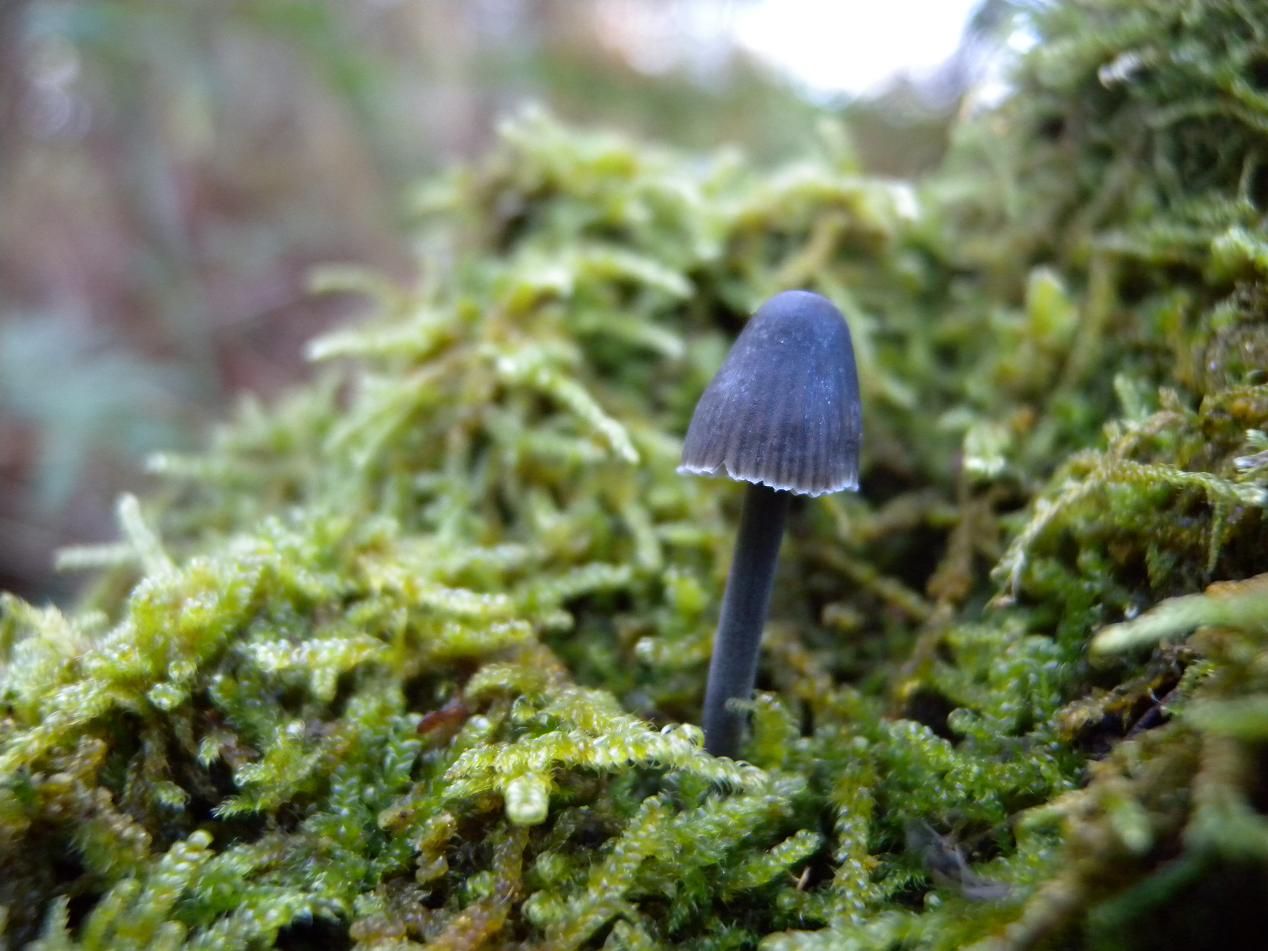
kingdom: Fungi
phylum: Basidiomycota
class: Agaricomycetes
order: Agaricales
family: Mycenaceae
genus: Mycena
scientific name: Mycena
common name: huesvamp
